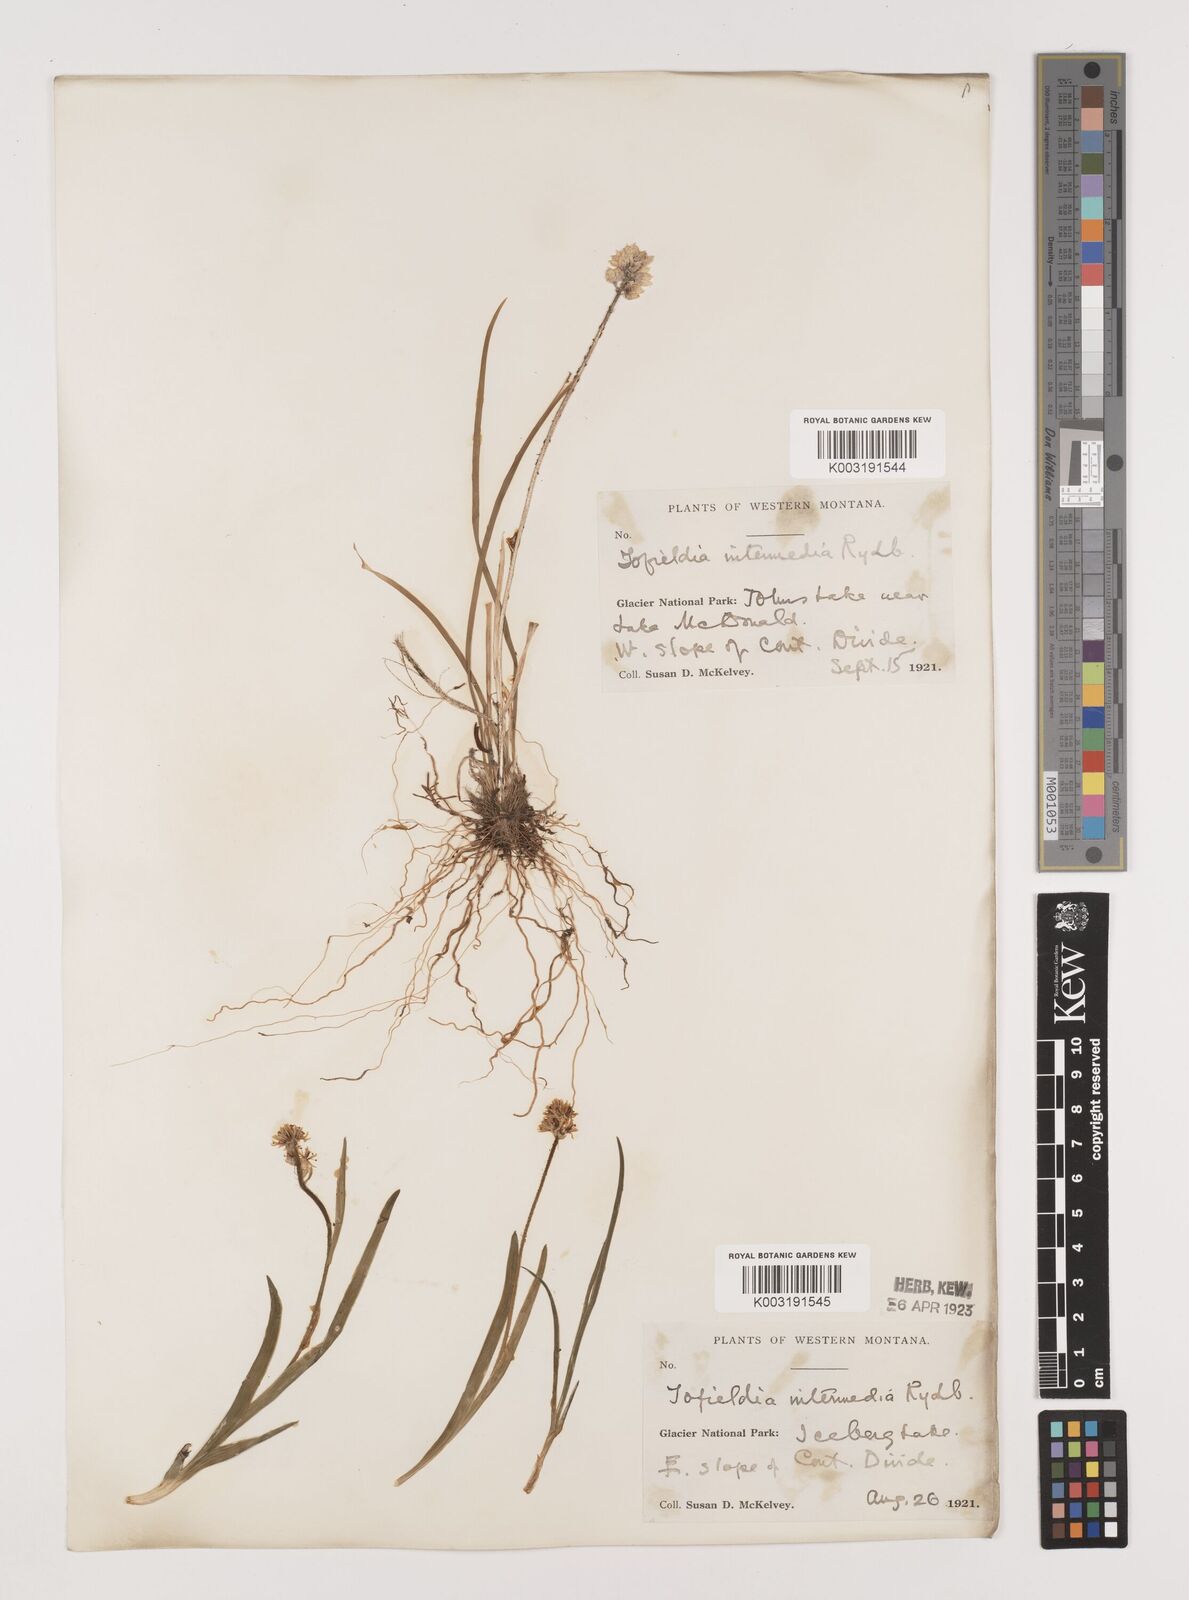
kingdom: Plantae
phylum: Tracheophyta
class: Liliopsida
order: Alismatales
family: Tofieldiaceae
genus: Triantha
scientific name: Triantha occidentalis
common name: Western false asphodel
